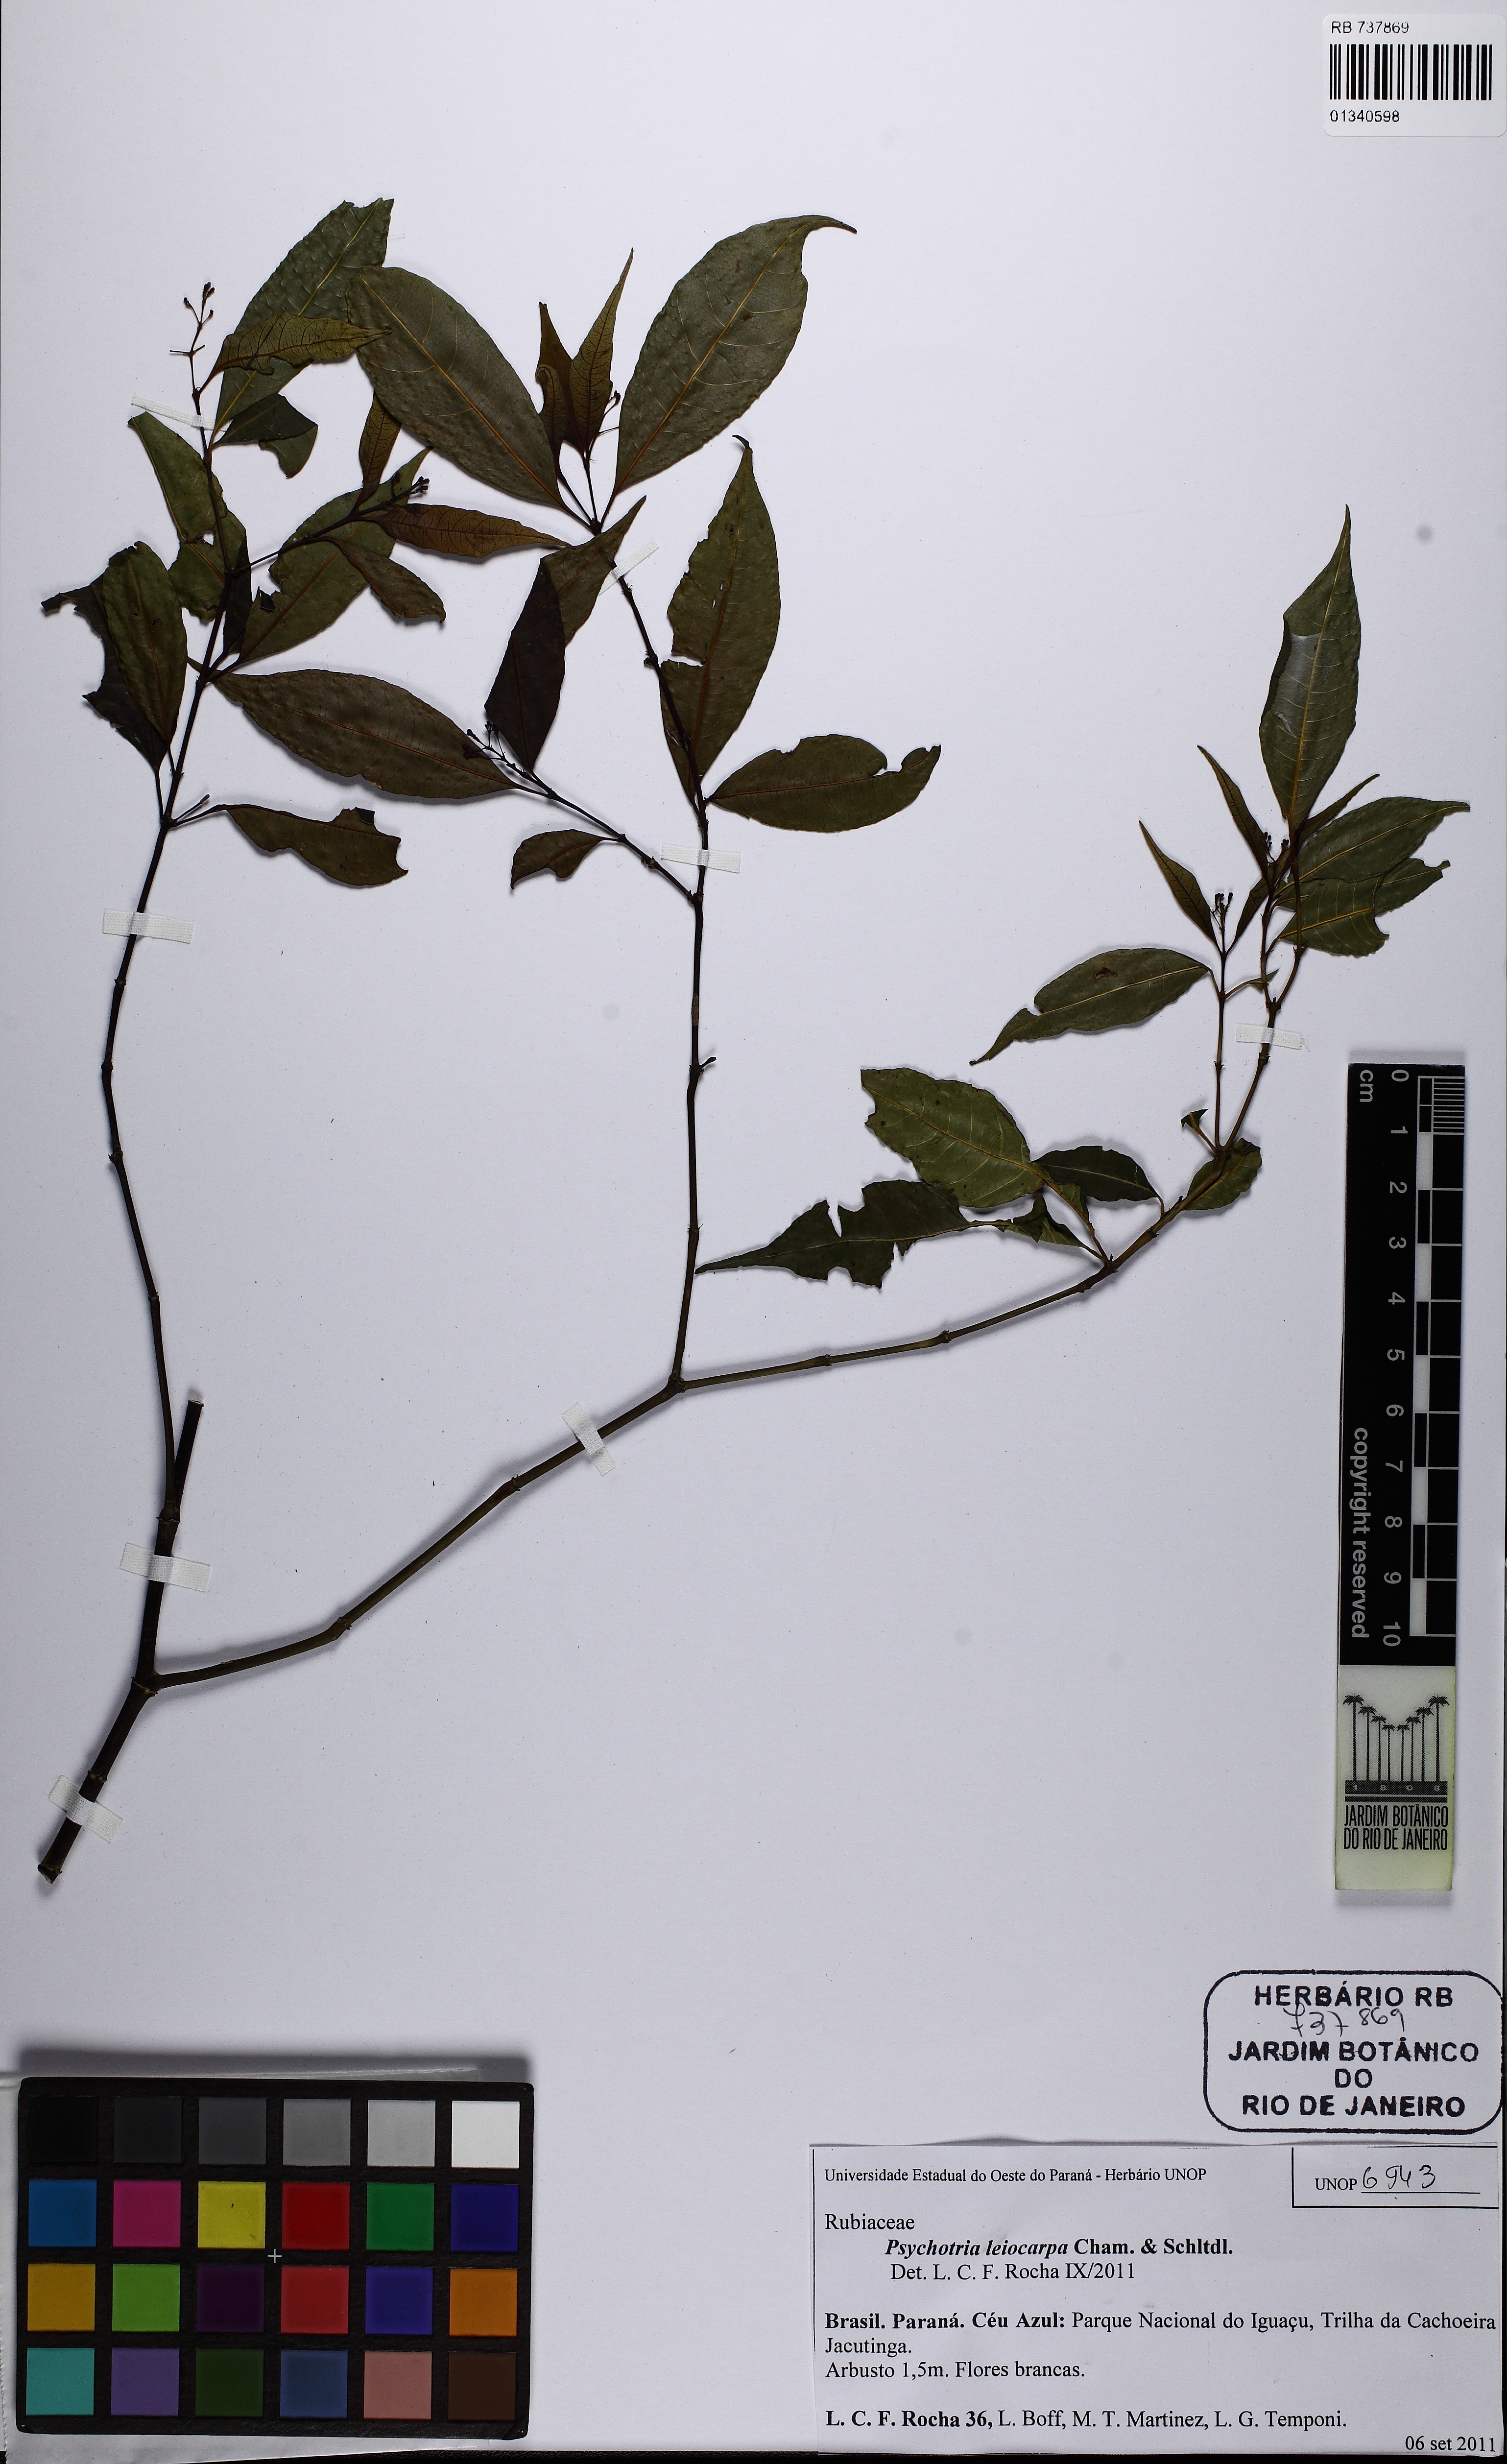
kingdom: Plantae
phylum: Tracheophyta
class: Magnoliopsida
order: Gentianales
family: Rubiaceae
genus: Psychotria
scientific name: Psychotria leiocarpa
